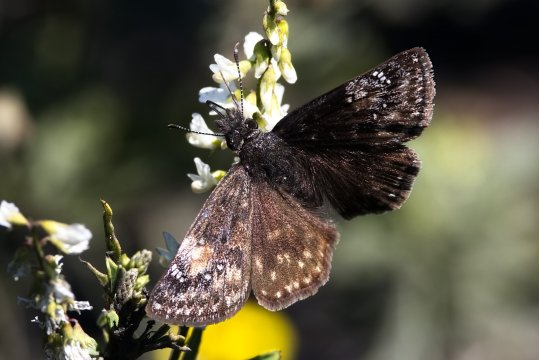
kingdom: Animalia
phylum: Arthropoda
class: Insecta
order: Lepidoptera
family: Hesperiidae
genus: Gesta
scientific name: Gesta
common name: Columbine Duskywing
